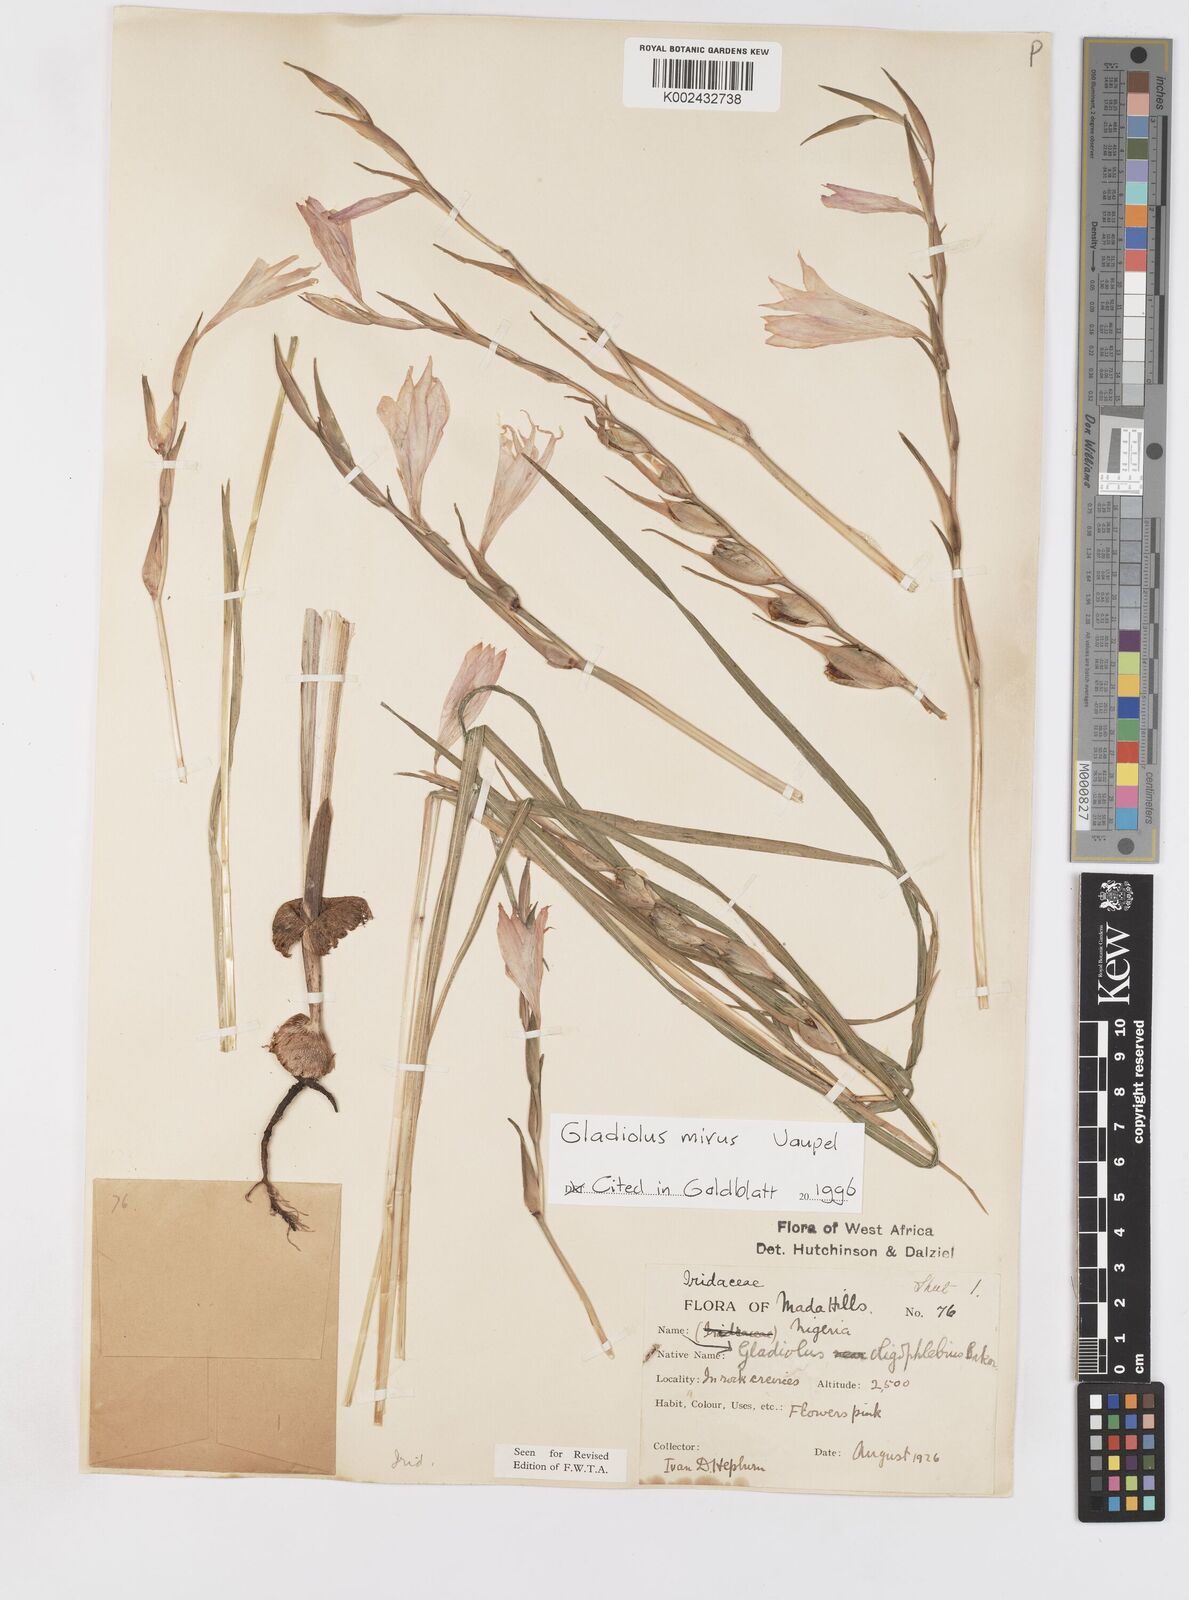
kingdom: Plantae
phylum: Tracheophyta
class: Liliopsida
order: Asparagales
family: Iridaceae
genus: Gladiolus
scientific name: Gladiolus mirus
